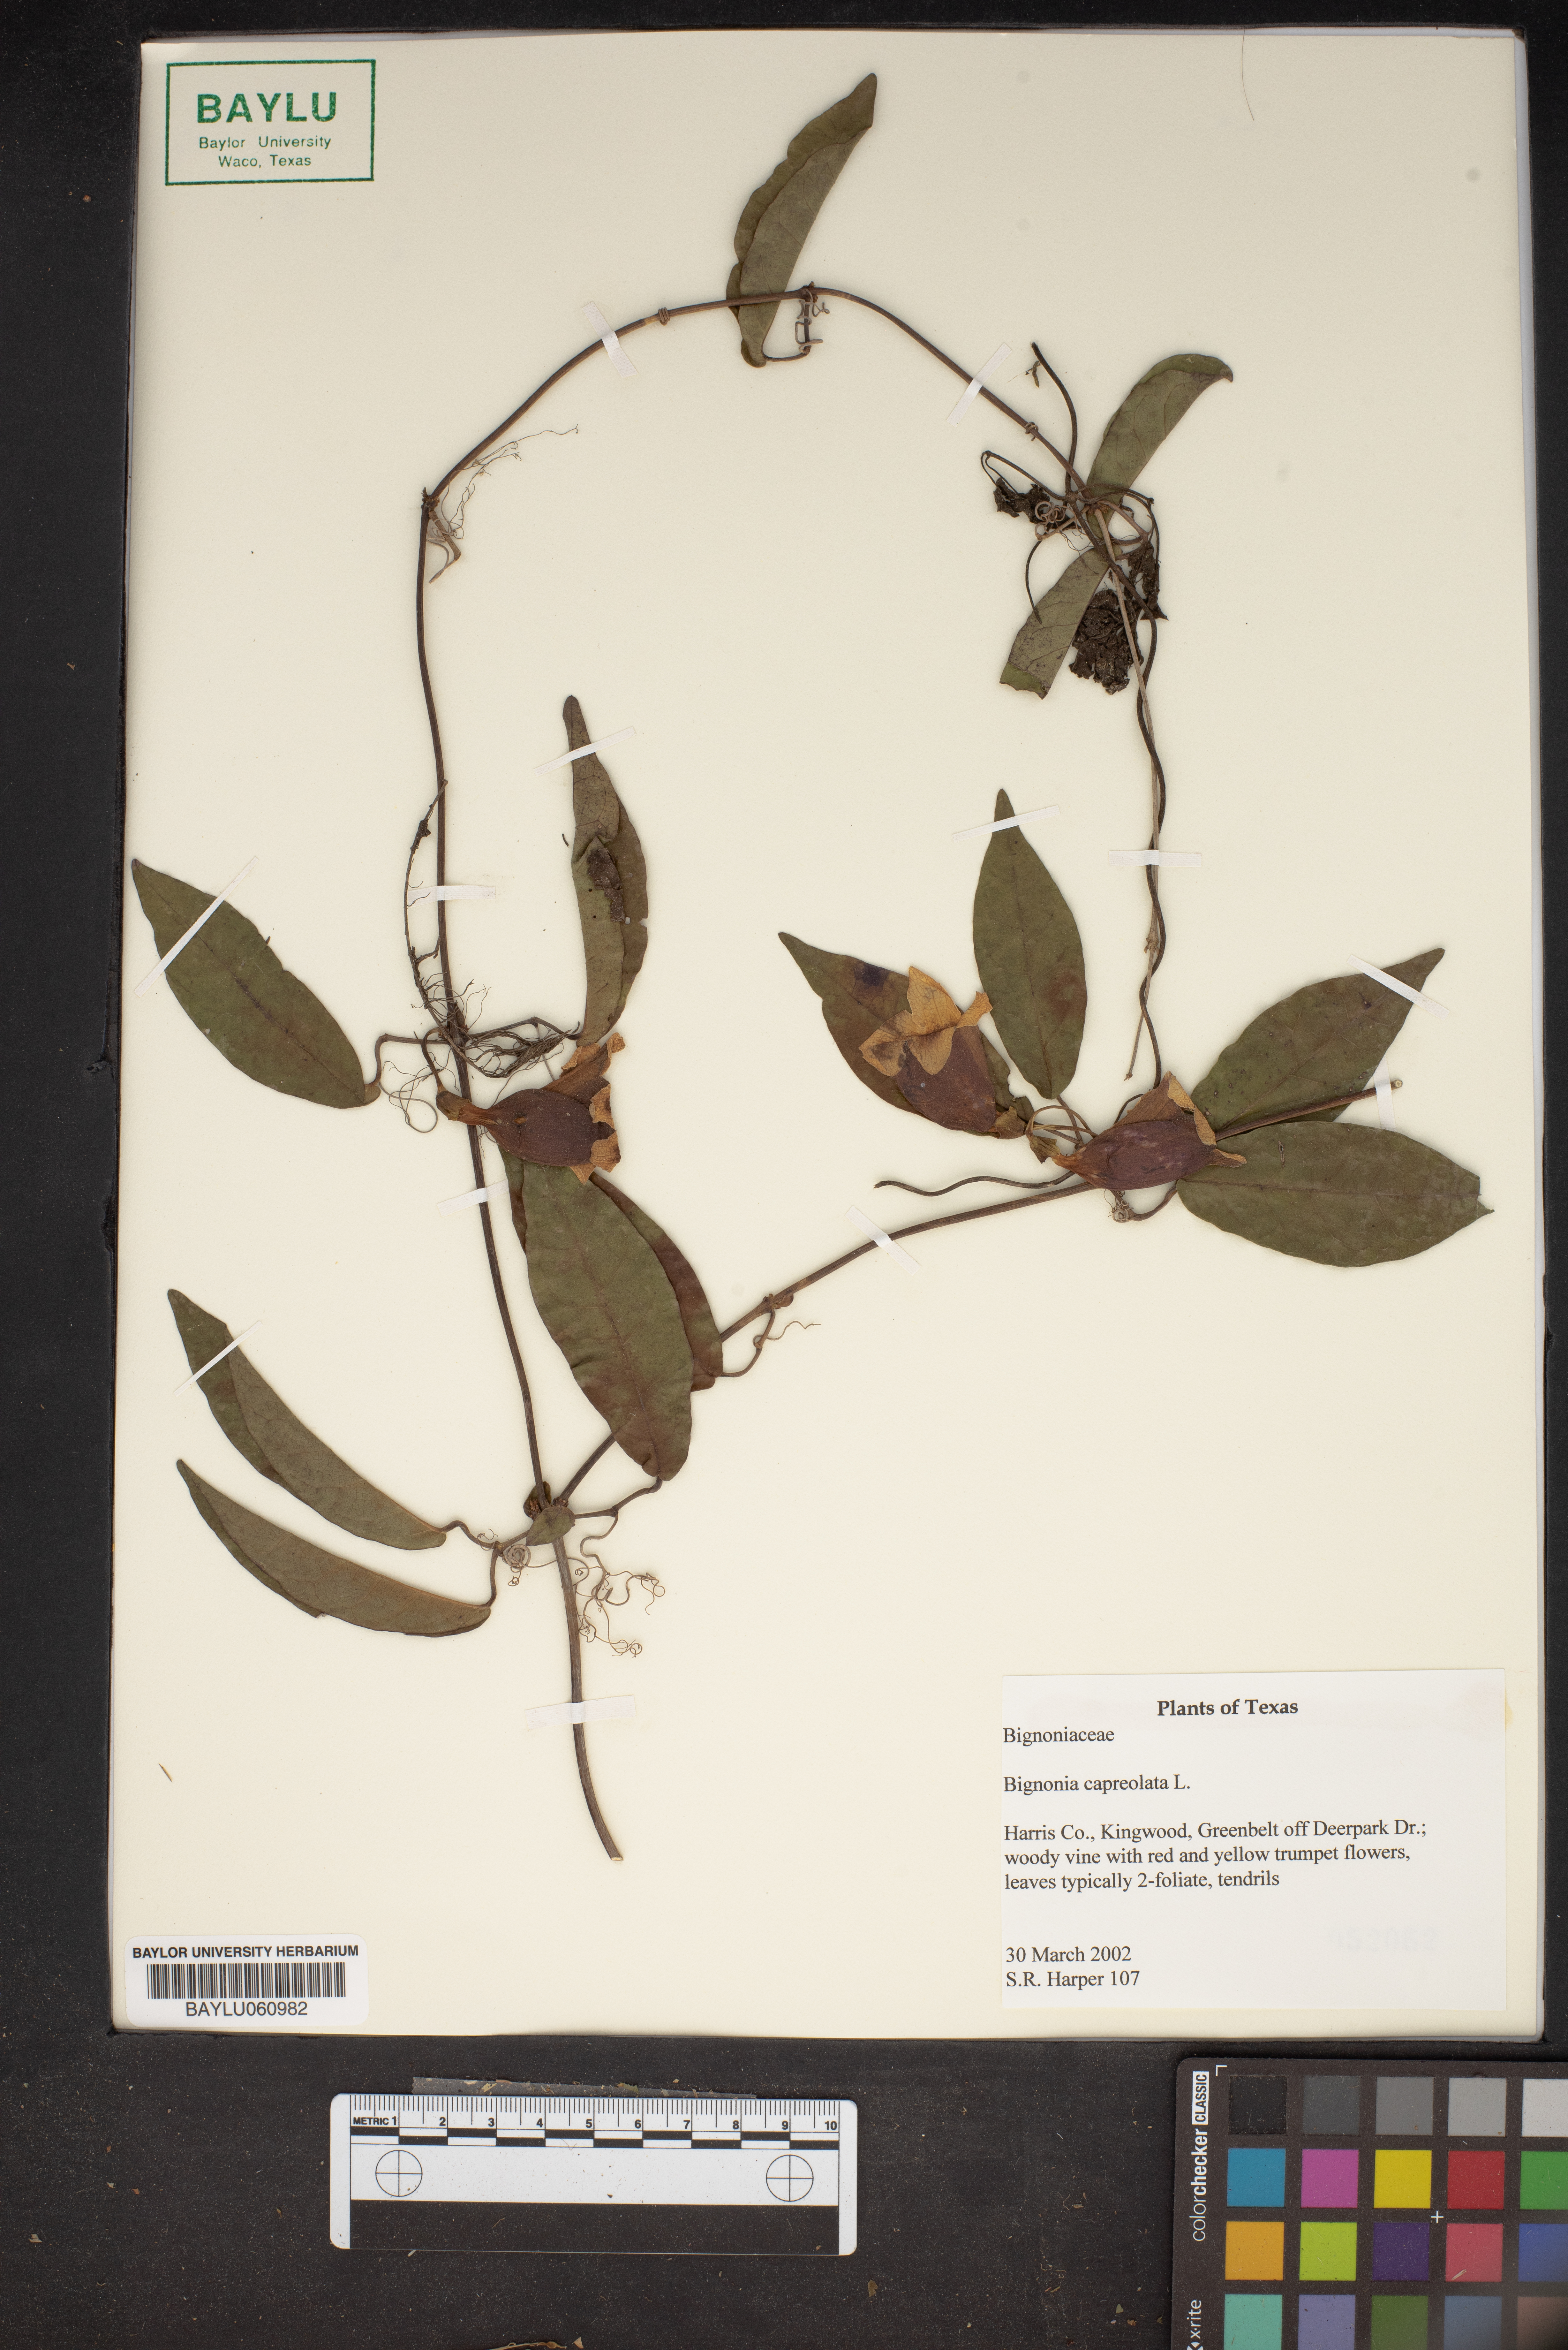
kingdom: Plantae
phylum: Tracheophyta
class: Magnoliopsida
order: Lamiales
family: Bignoniaceae
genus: Bignonia
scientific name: Bignonia capreolata
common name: Crossvine
